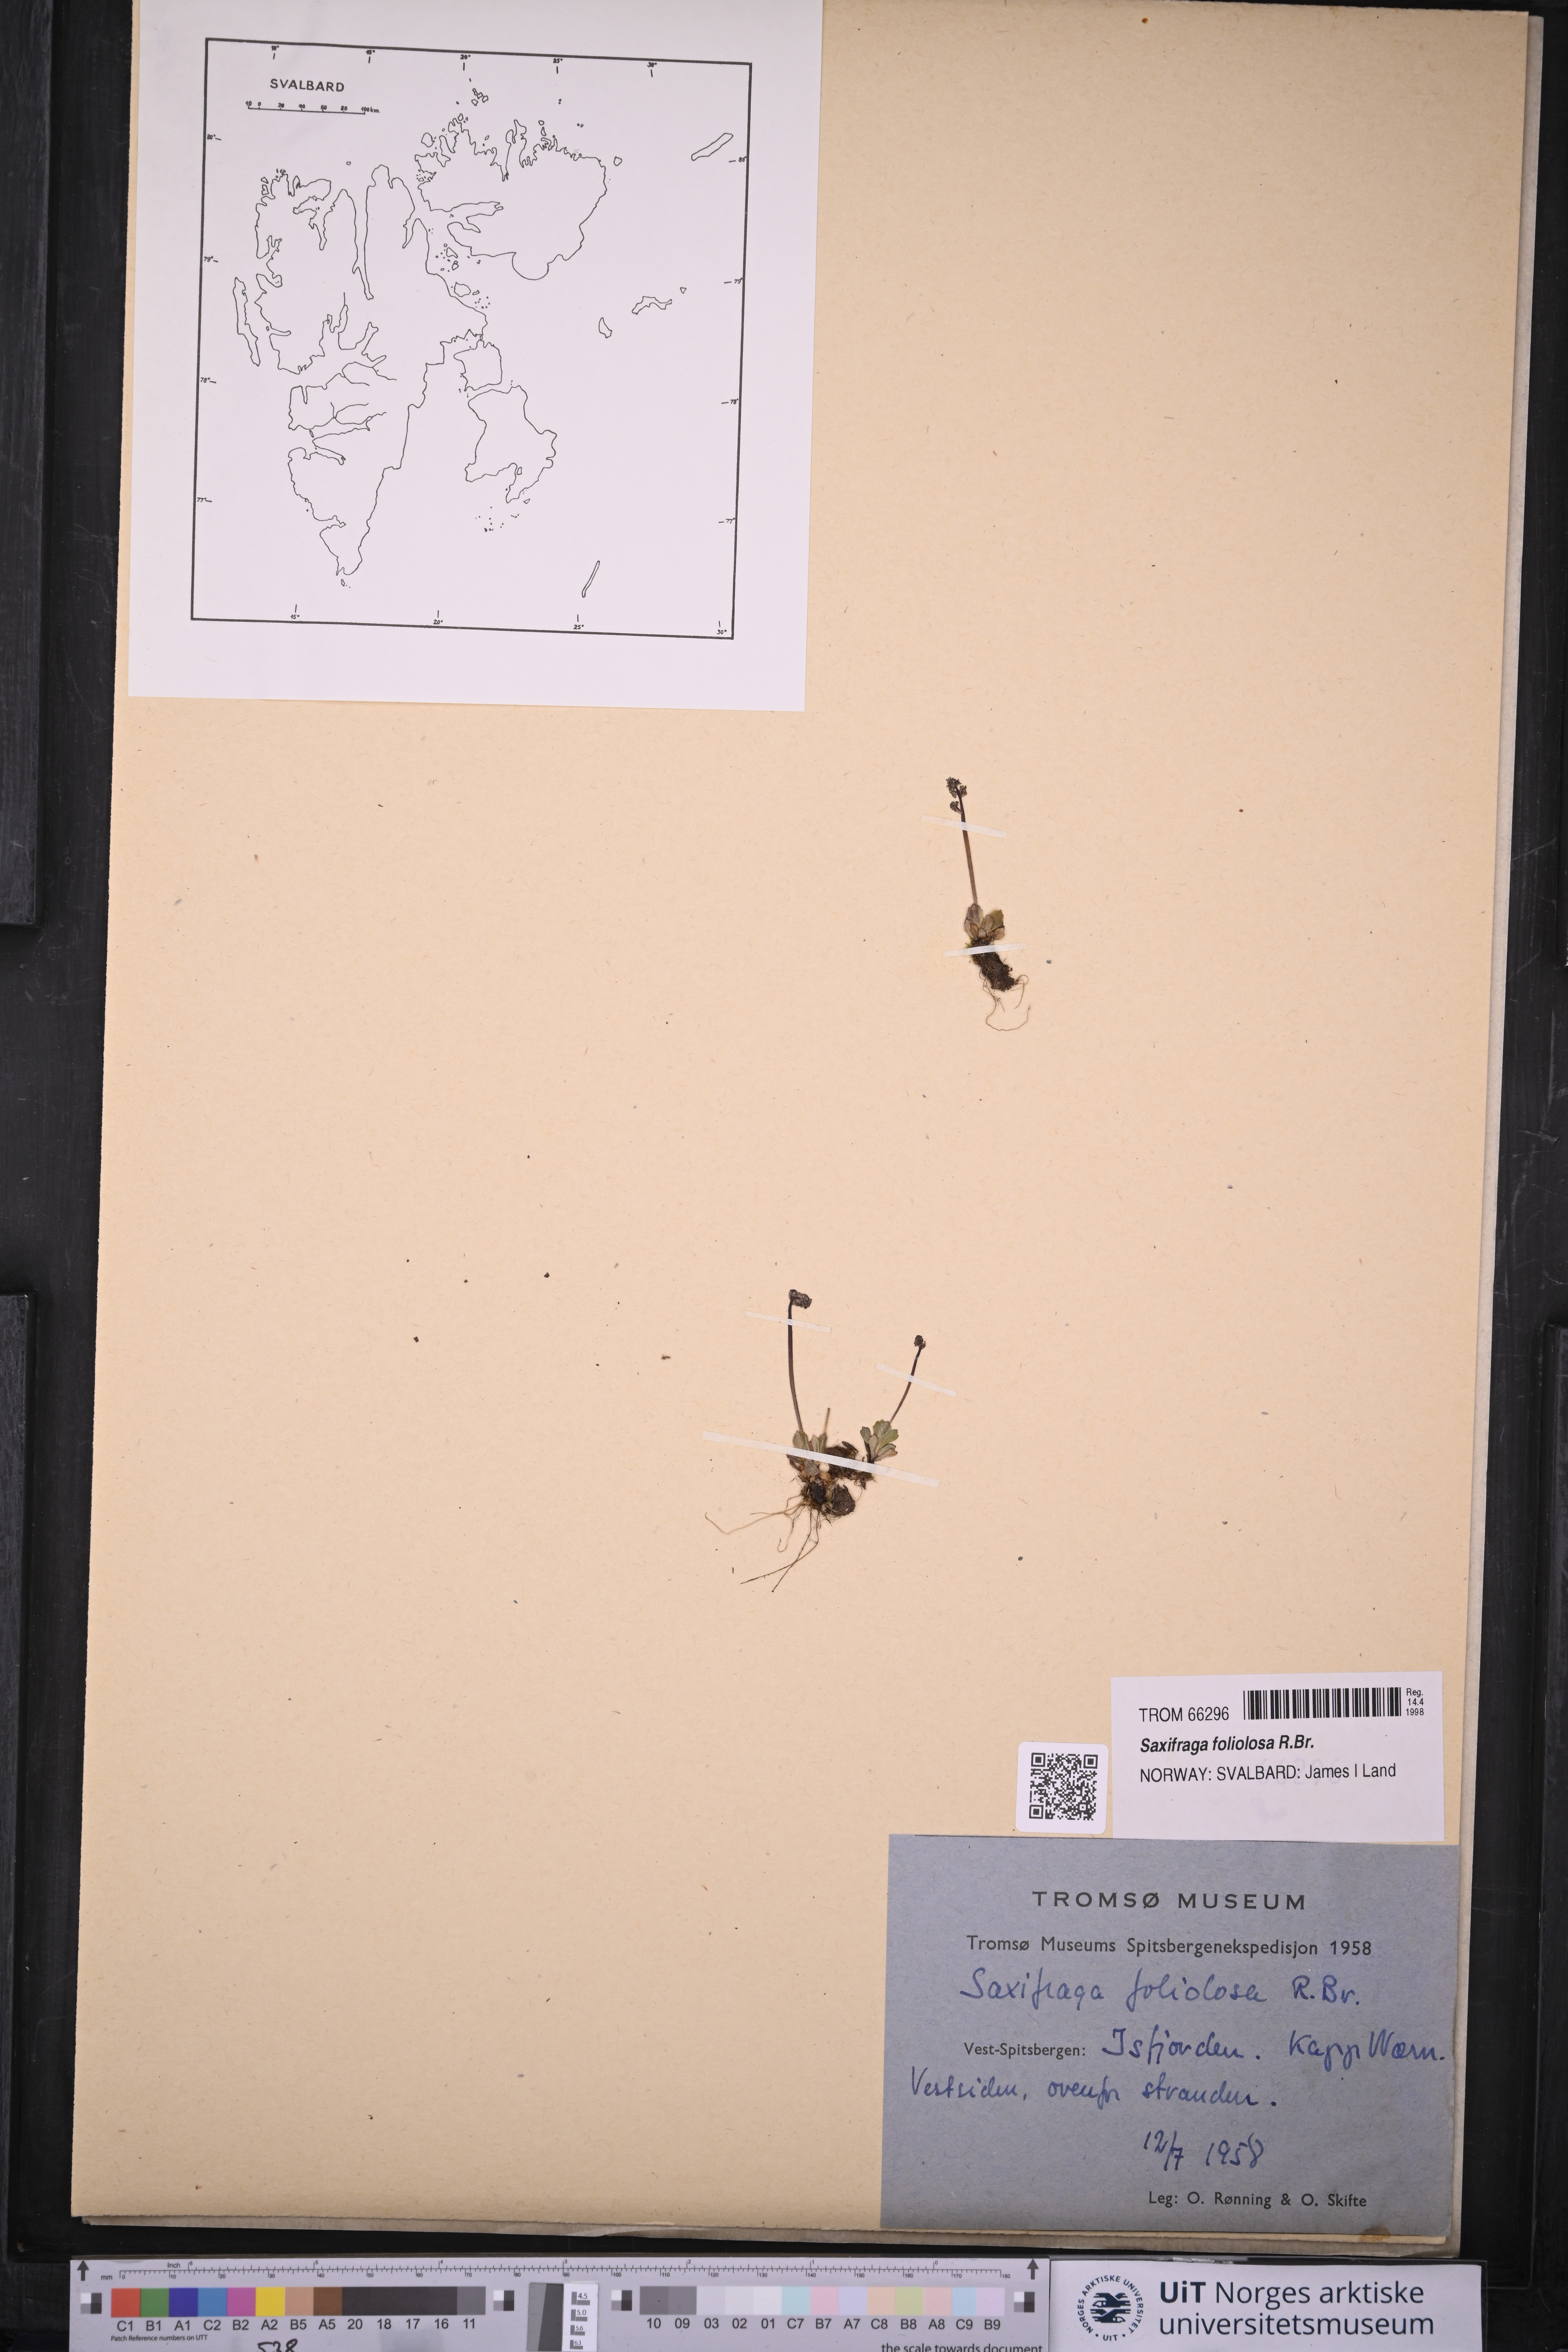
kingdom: Plantae
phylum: Tracheophyta
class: Magnoliopsida
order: Saxifragales
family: Saxifragaceae
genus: Micranthes
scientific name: Micranthes foliolosa
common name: Leafystem saxifrage
